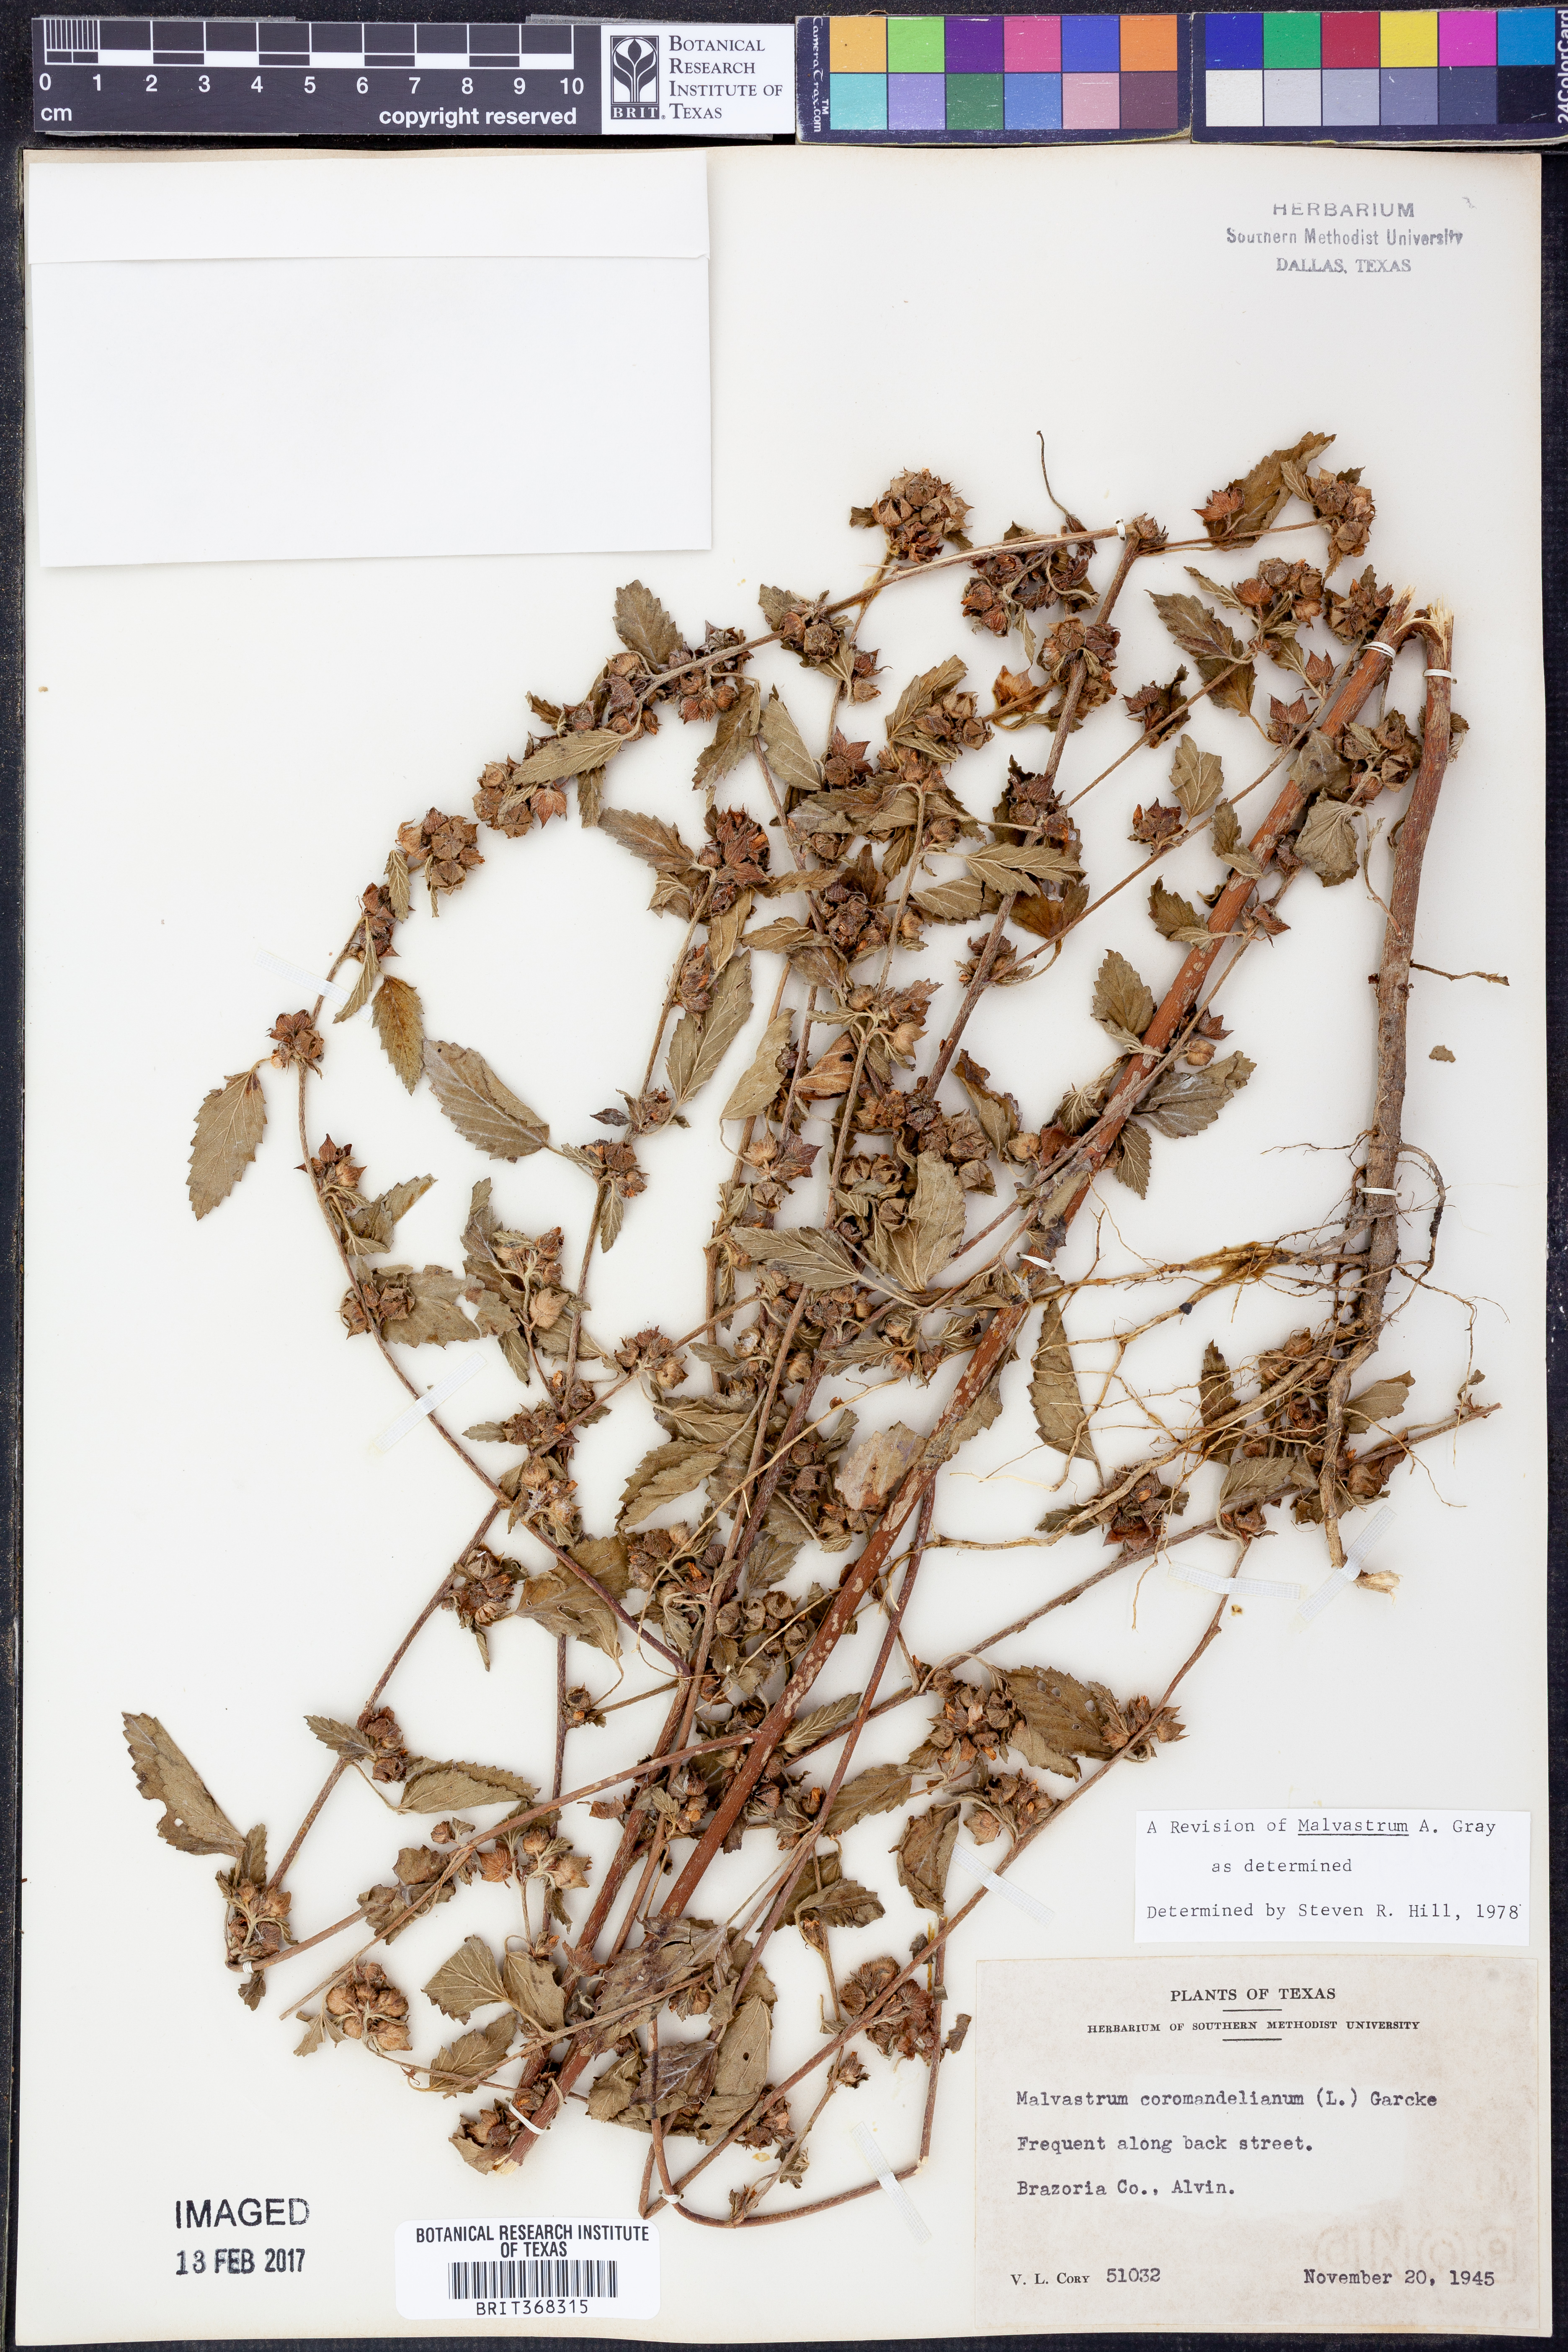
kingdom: Plantae
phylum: Tracheophyta
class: Magnoliopsida
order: Malvales
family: Malvaceae
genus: Malvastrum
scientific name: Malvastrum coromandelianum
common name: Threelobe false mallow
